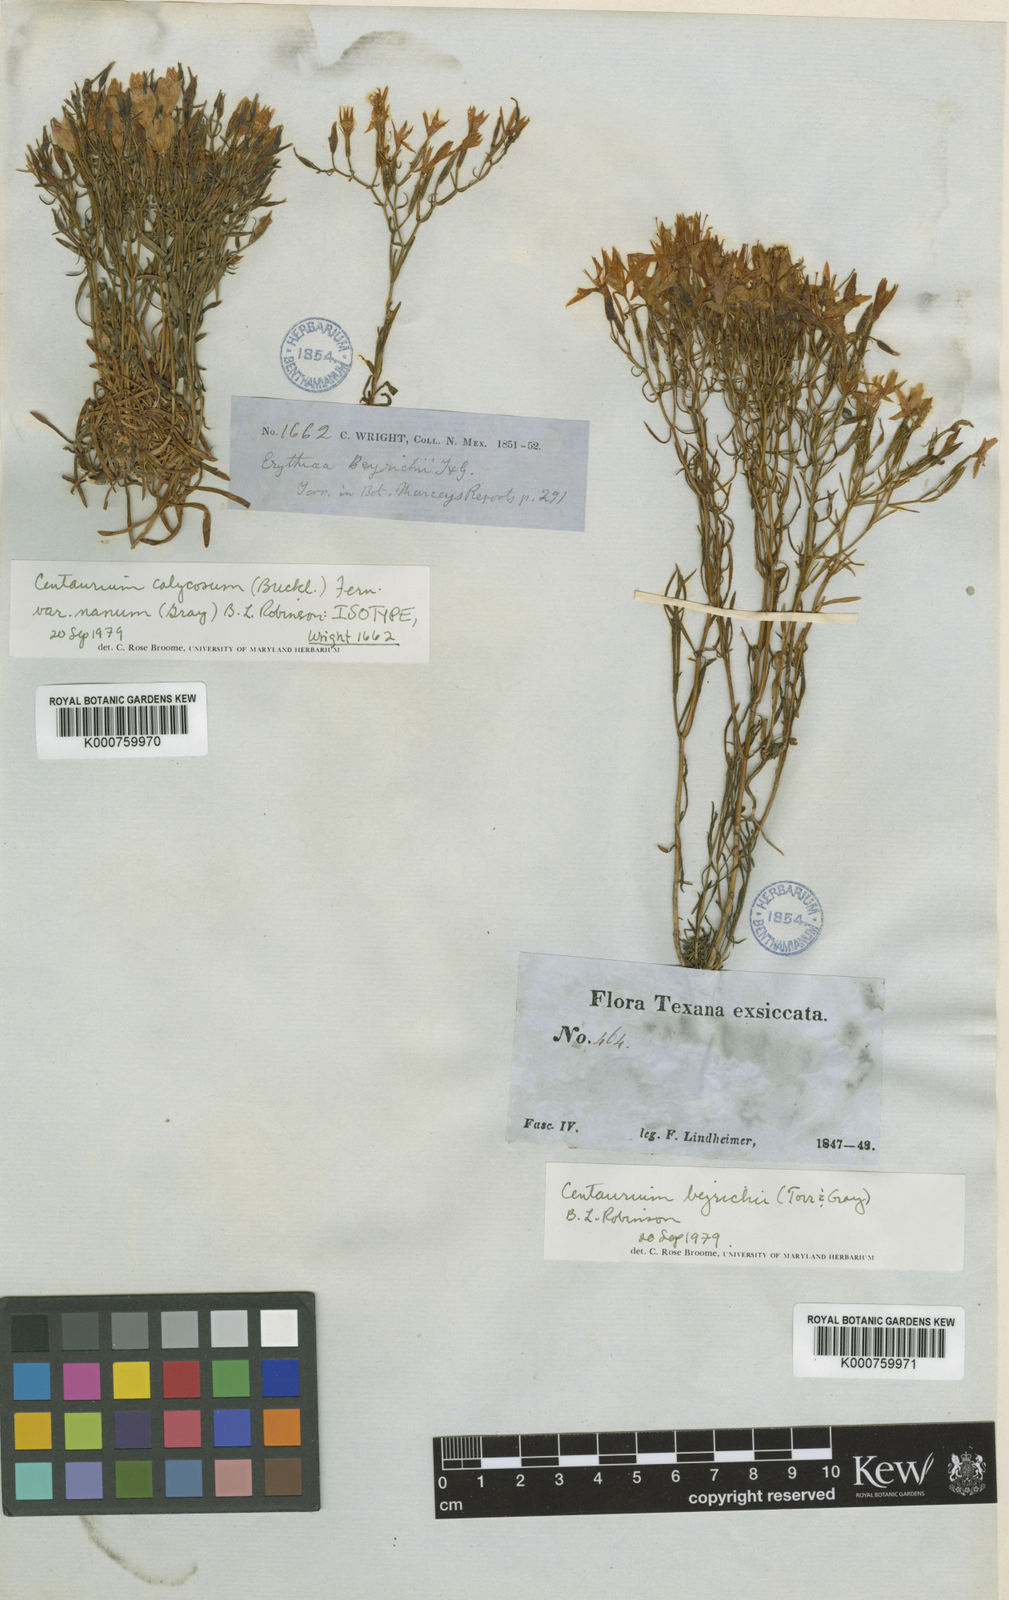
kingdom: Plantae
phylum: Tracheophyta
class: Magnoliopsida
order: Gentianales
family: Gentianaceae
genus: Zeltnera
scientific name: Zeltnera calycosa
